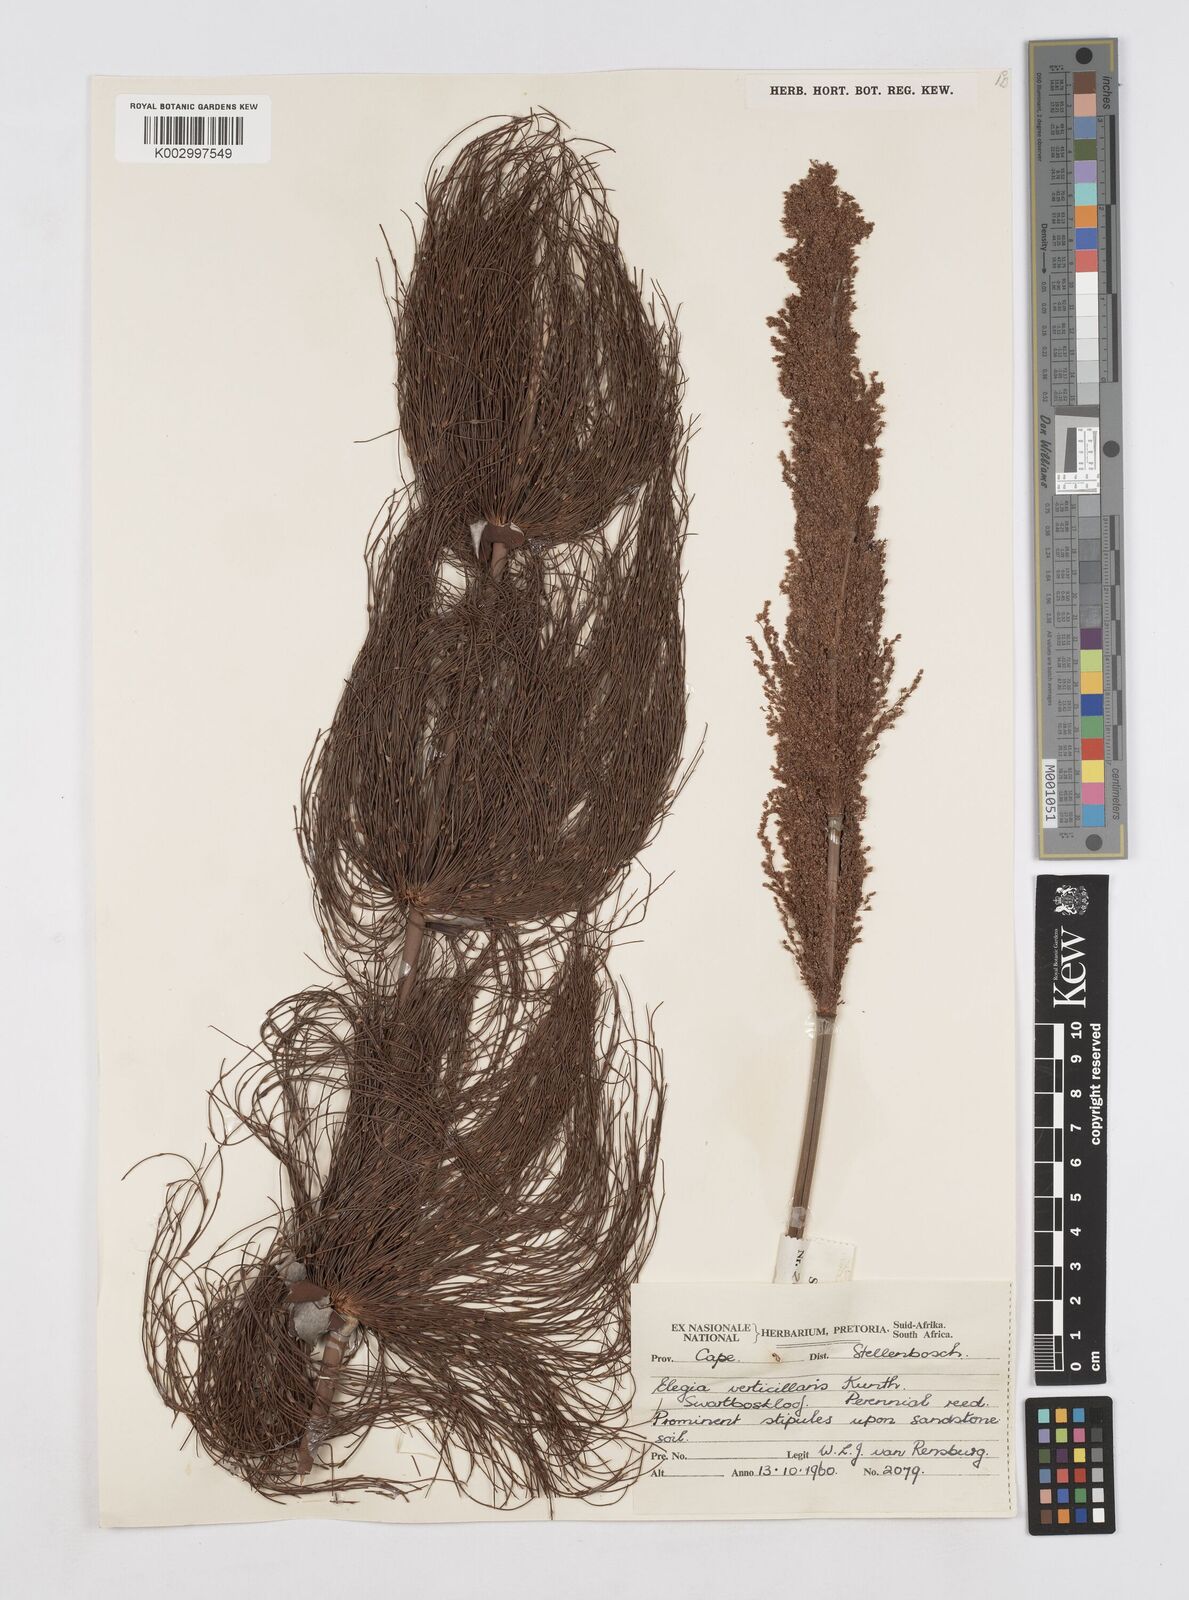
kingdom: Plantae
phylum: Tracheophyta
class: Liliopsida
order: Poales
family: Restionaceae
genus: Elegia
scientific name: Elegia capensis
